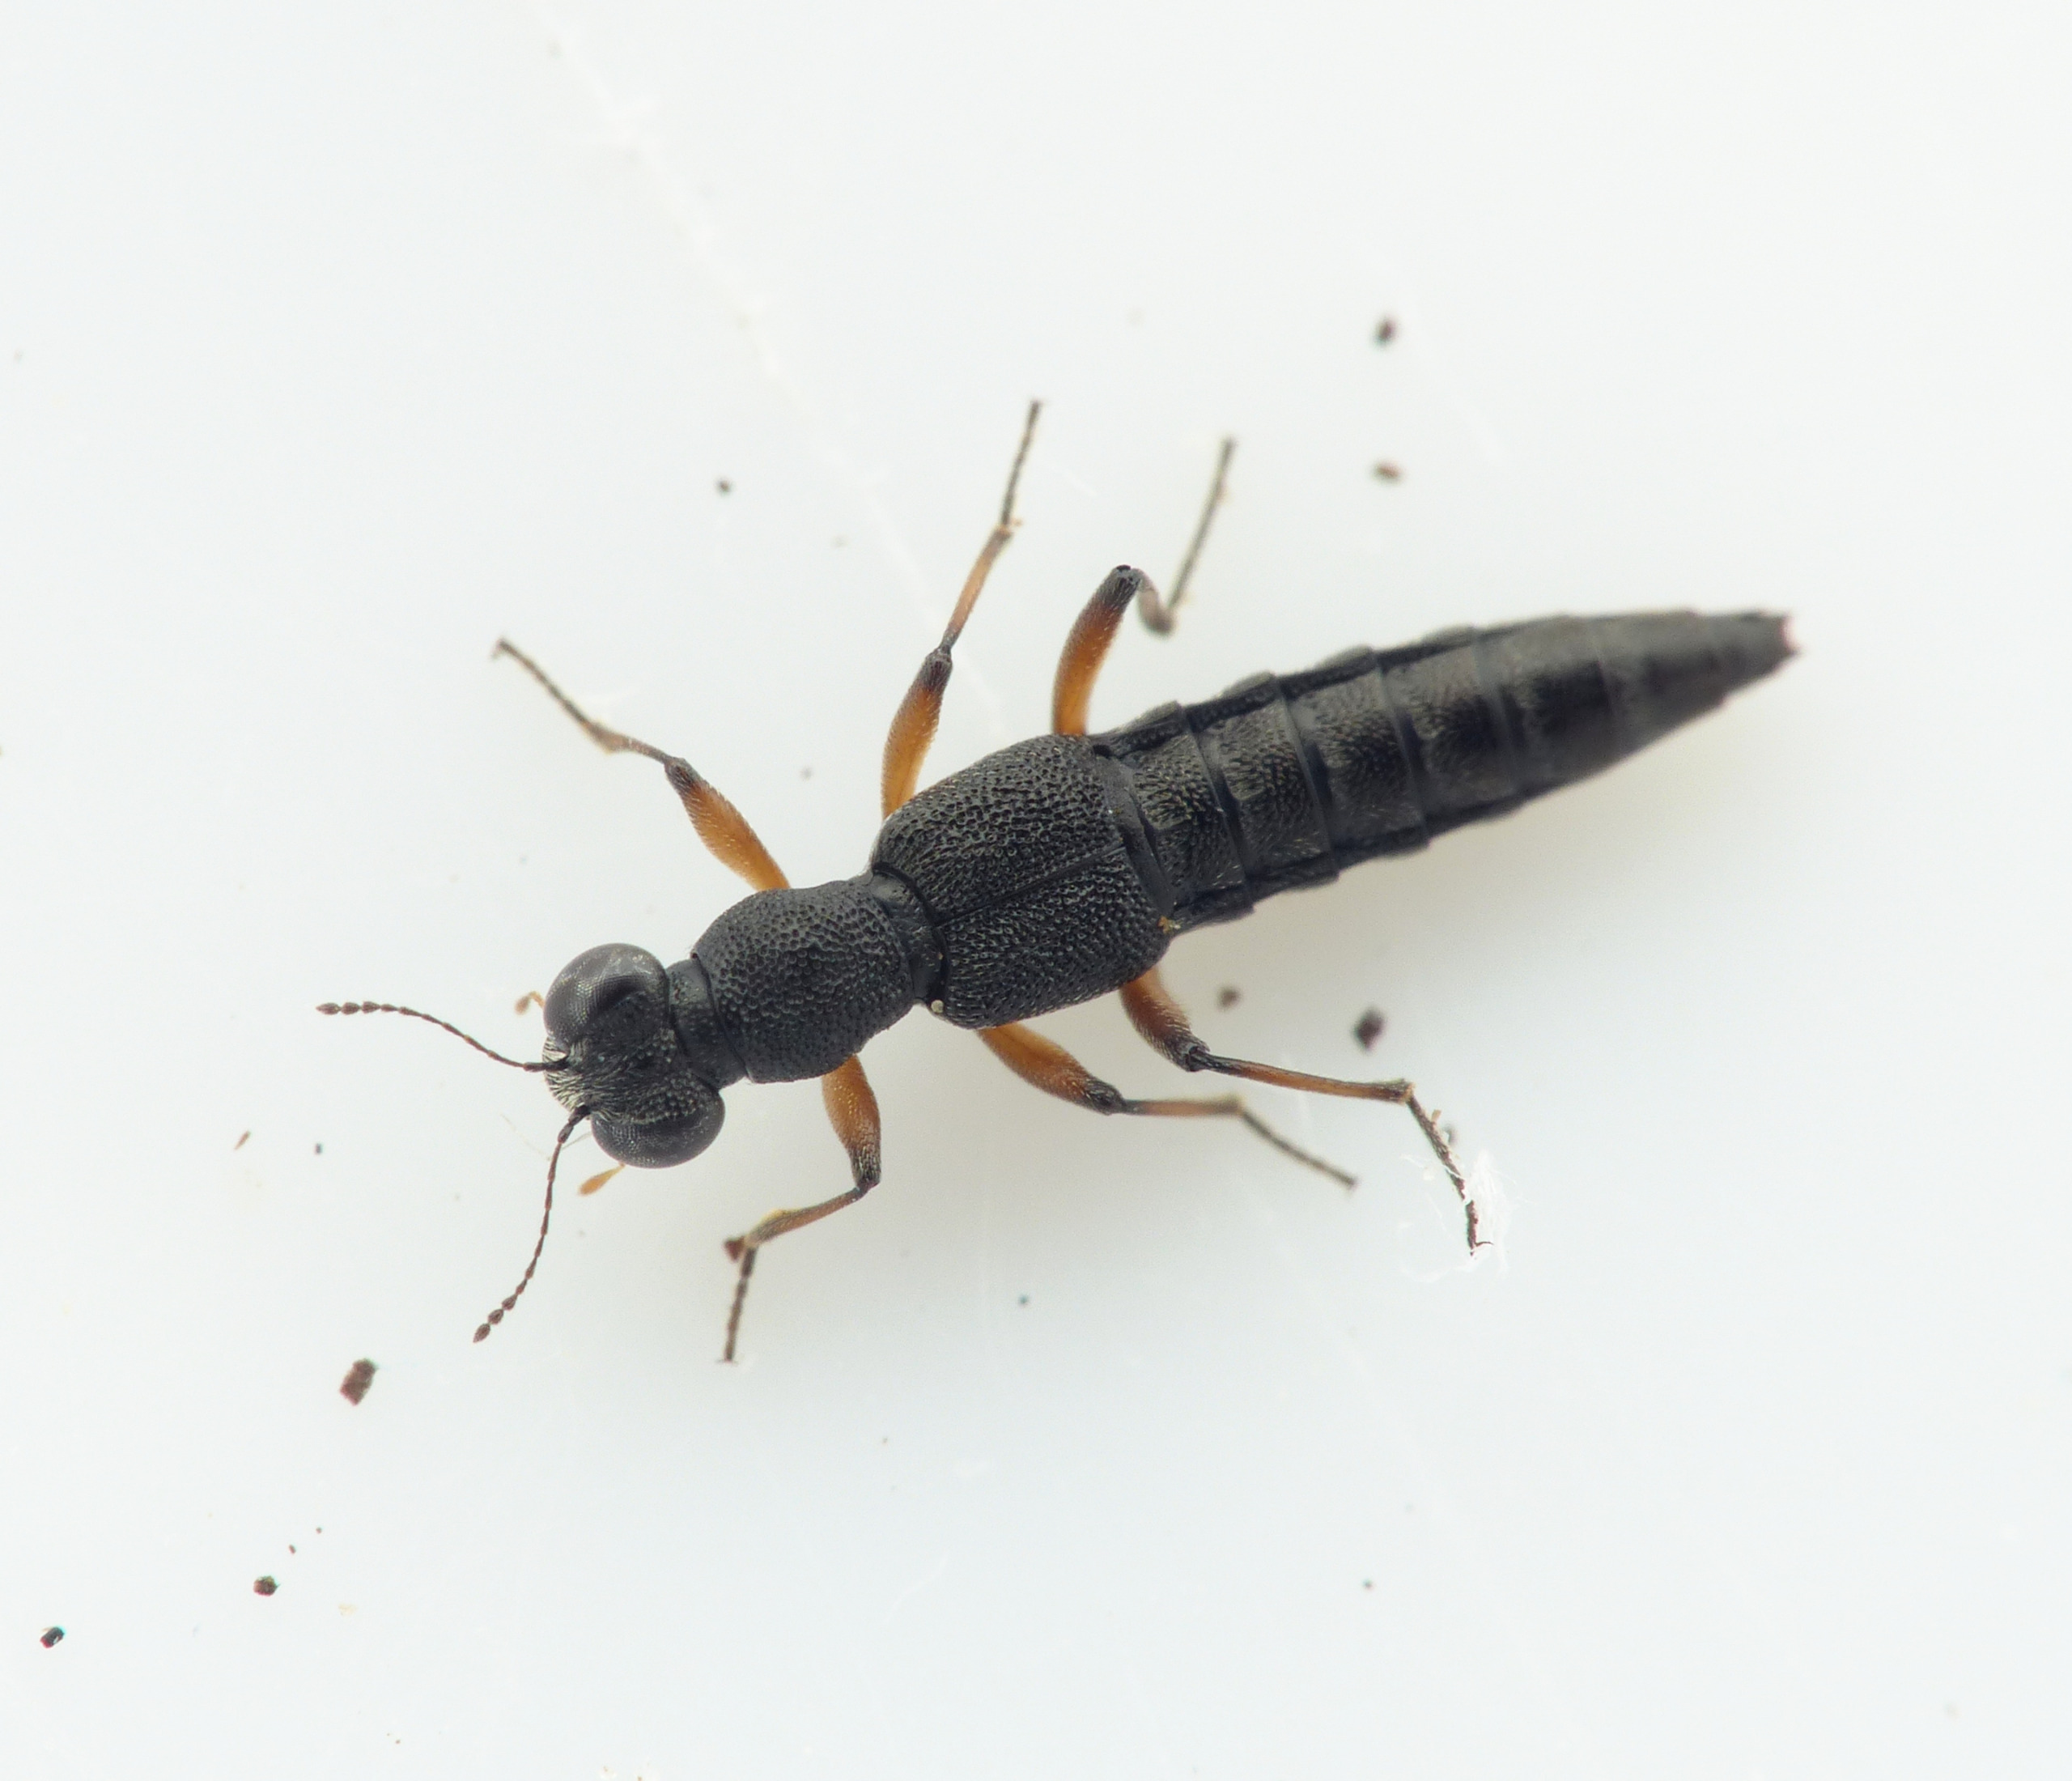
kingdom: Animalia
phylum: Arthropoda
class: Insecta
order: Coleoptera
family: Staphylinidae
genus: Stenus
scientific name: Stenus clavicornis
